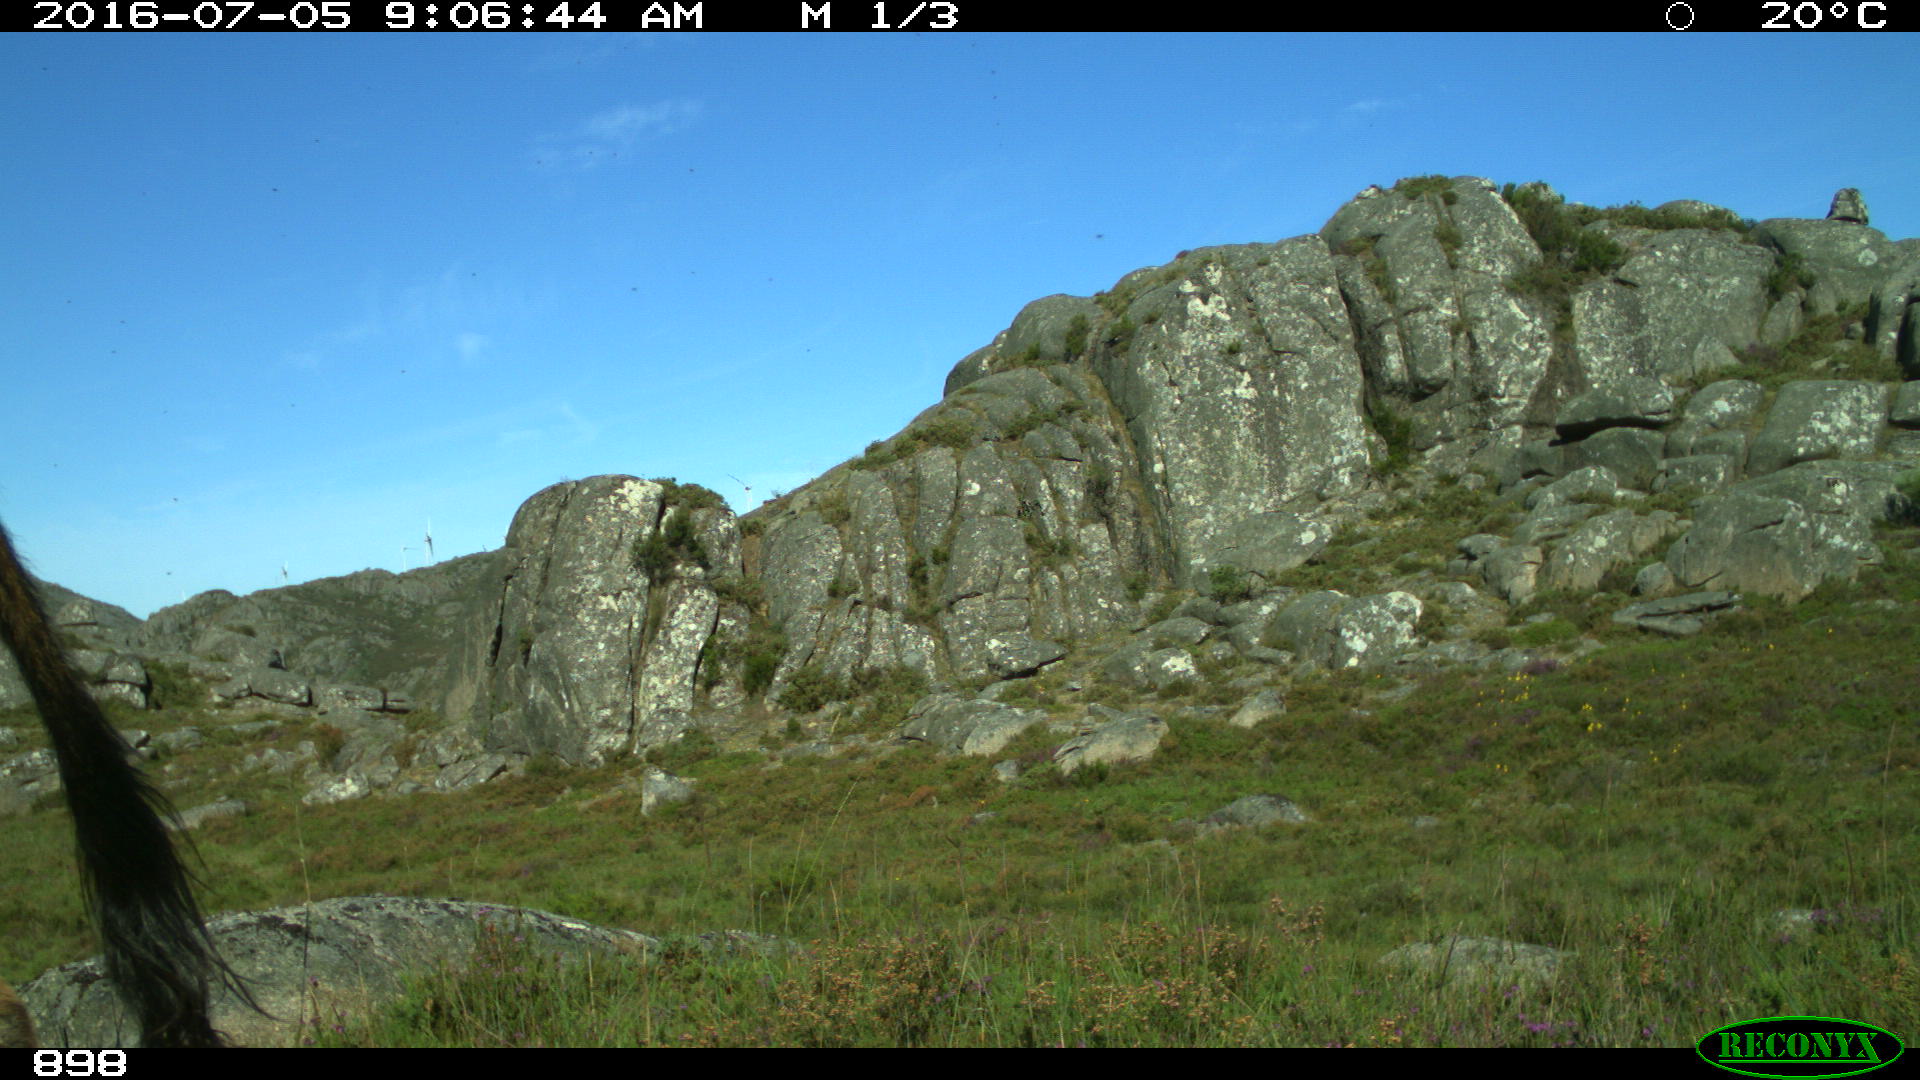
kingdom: Animalia
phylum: Chordata
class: Mammalia
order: Artiodactyla
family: Bovidae
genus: Bos
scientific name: Bos taurus
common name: Domesticated cattle
